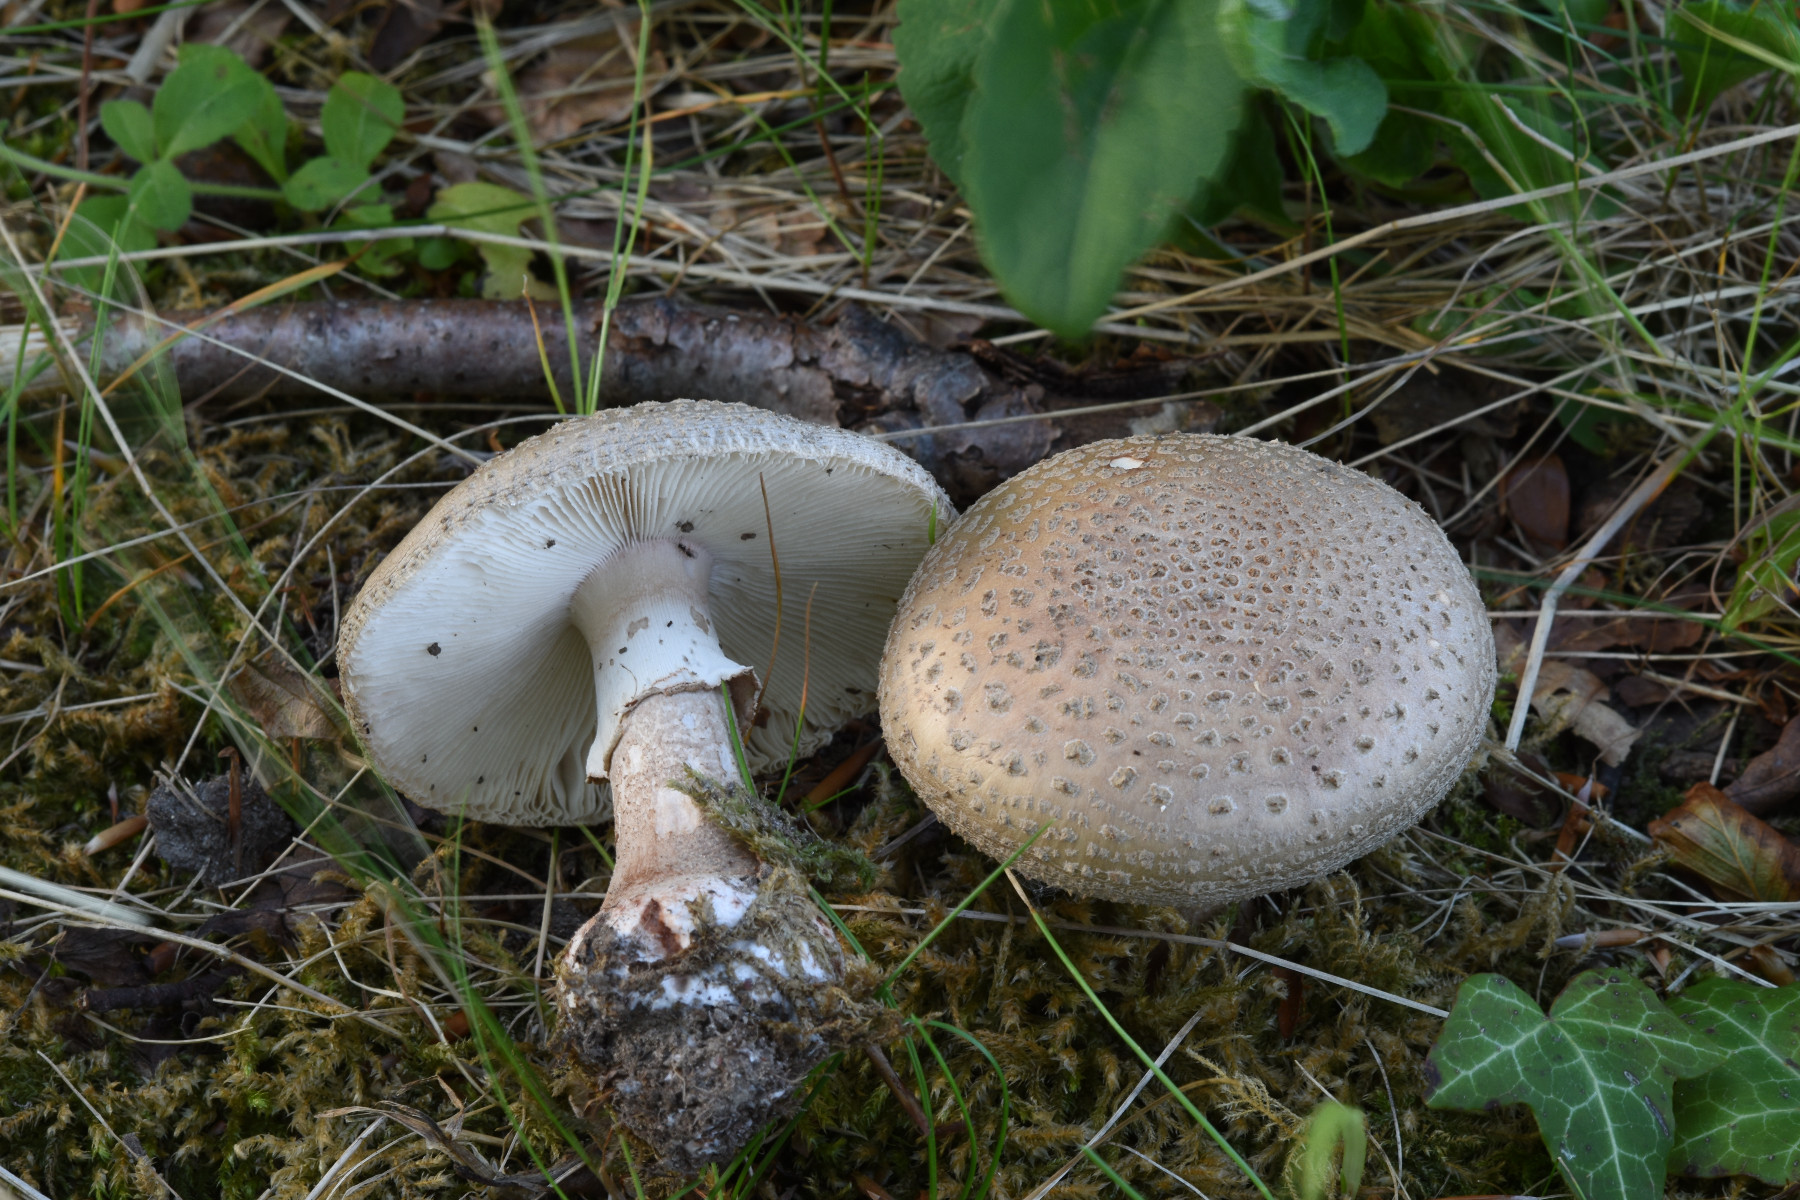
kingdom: Fungi
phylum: Basidiomycota
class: Agaricomycetes
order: Agaricales
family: Amanitaceae
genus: Amanita
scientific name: Amanita rubescens
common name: rødmende fluesvamp
